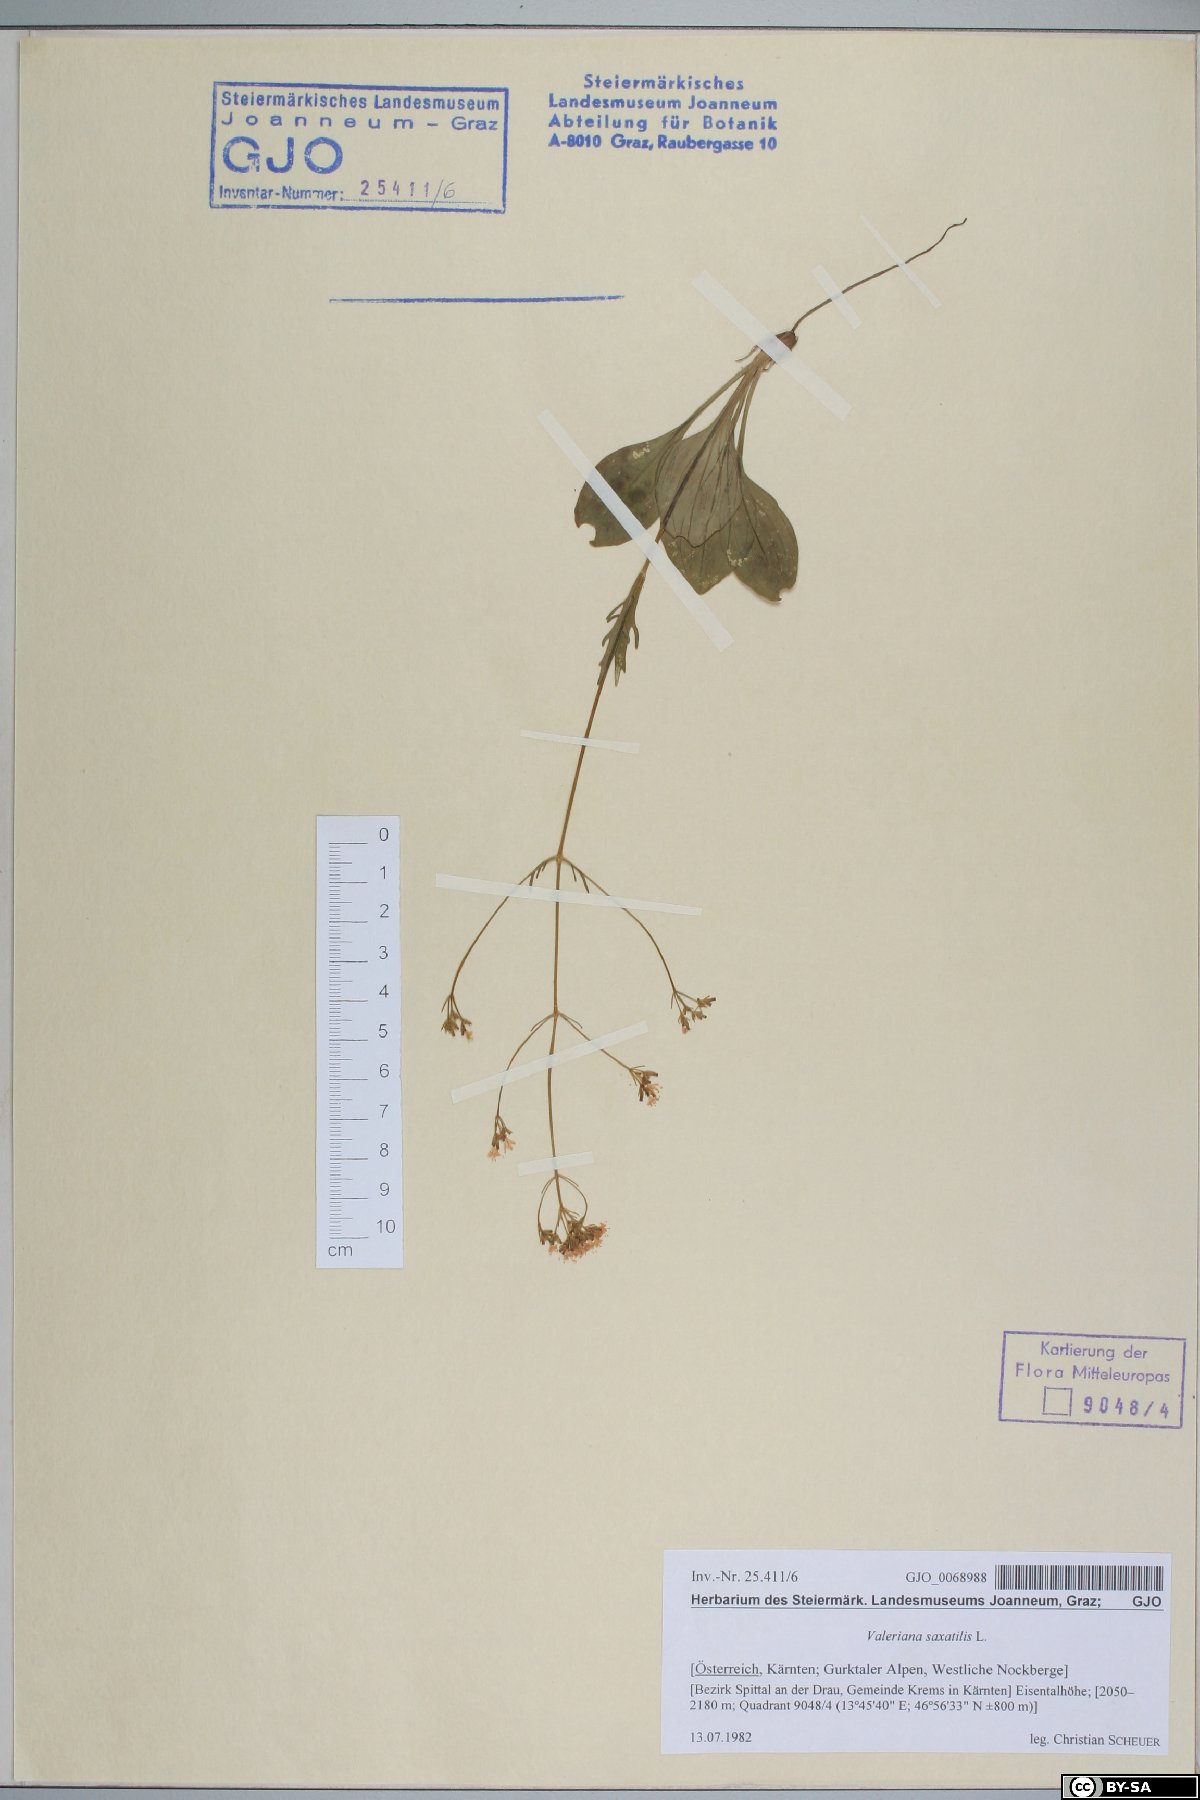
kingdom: Plantae
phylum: Tracheophyta
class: Magnoliopsida
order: Dipsacales
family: Caprifoliaceae
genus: Valeriana
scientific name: Valeriana saxatilis
